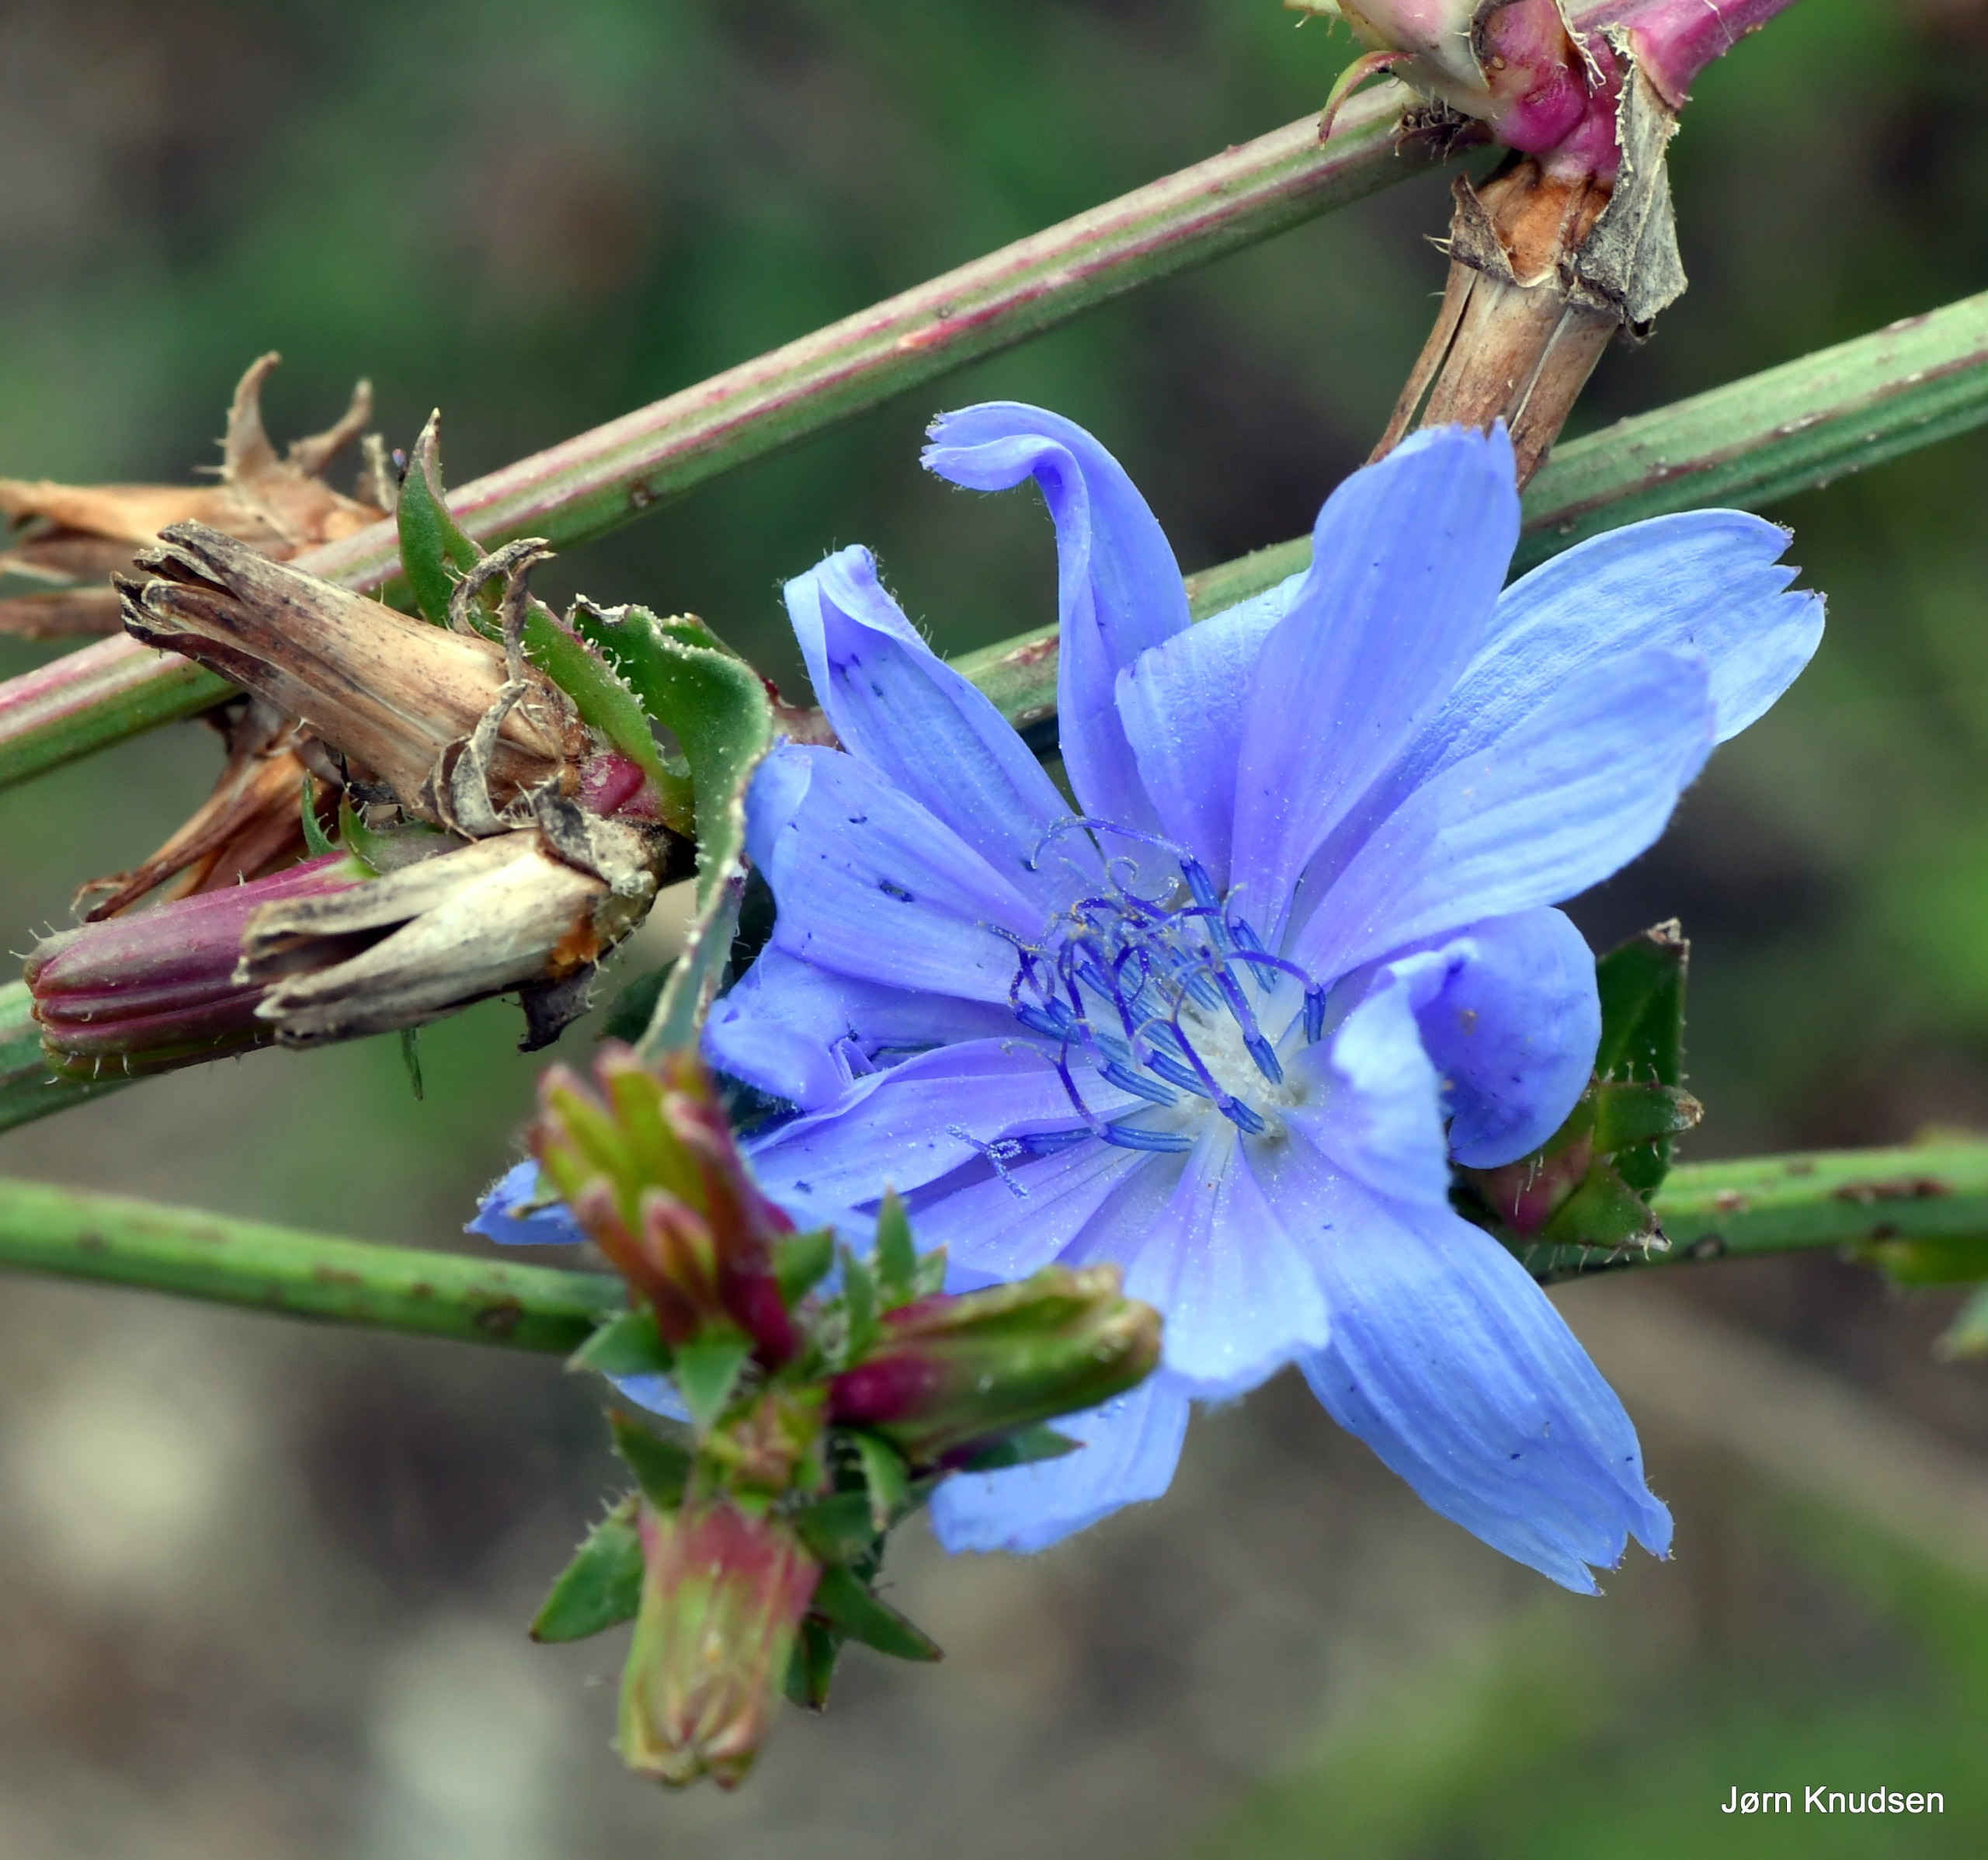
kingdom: Plantae
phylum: Tracheophyta
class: Magnoliopsida
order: Asterales
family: Asteraceae
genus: Cichorium
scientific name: Cichorium intybus
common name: Cikorie
